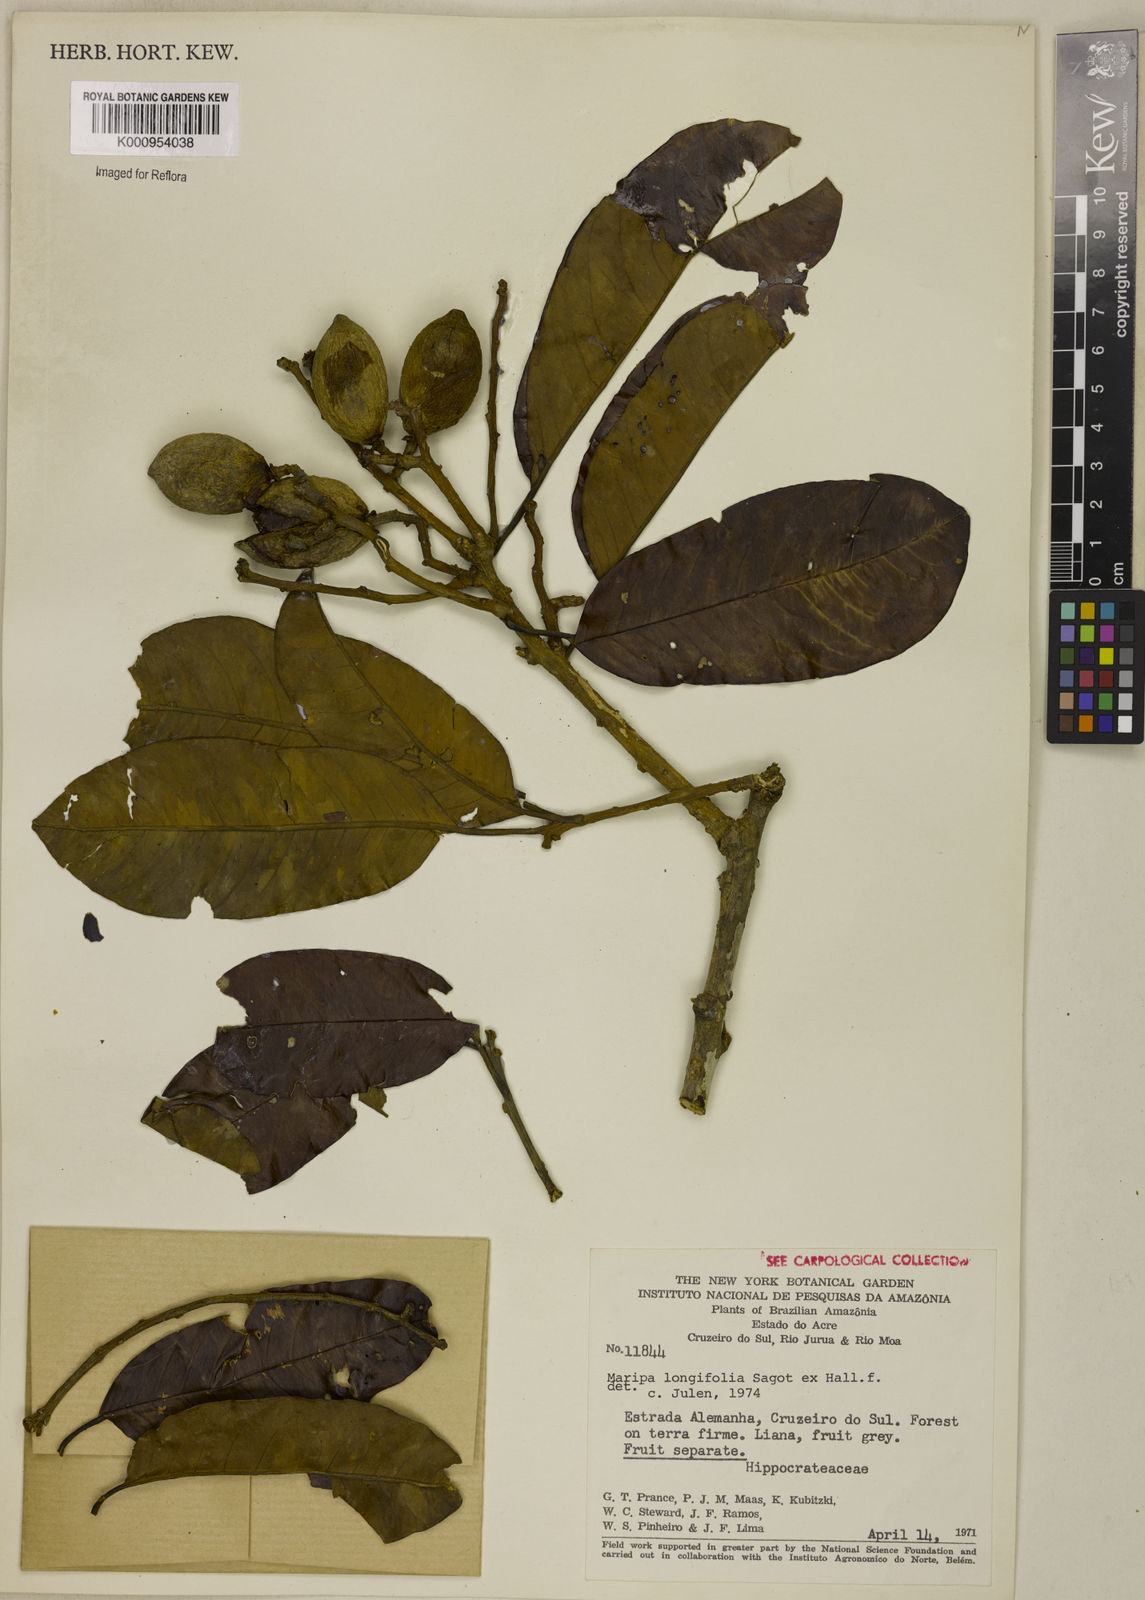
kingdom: Plantae
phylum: Tracheophyta
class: Magnoliopsida
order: Solanales
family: Convolvulaceae
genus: Maripa
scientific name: Maripa longifolia
